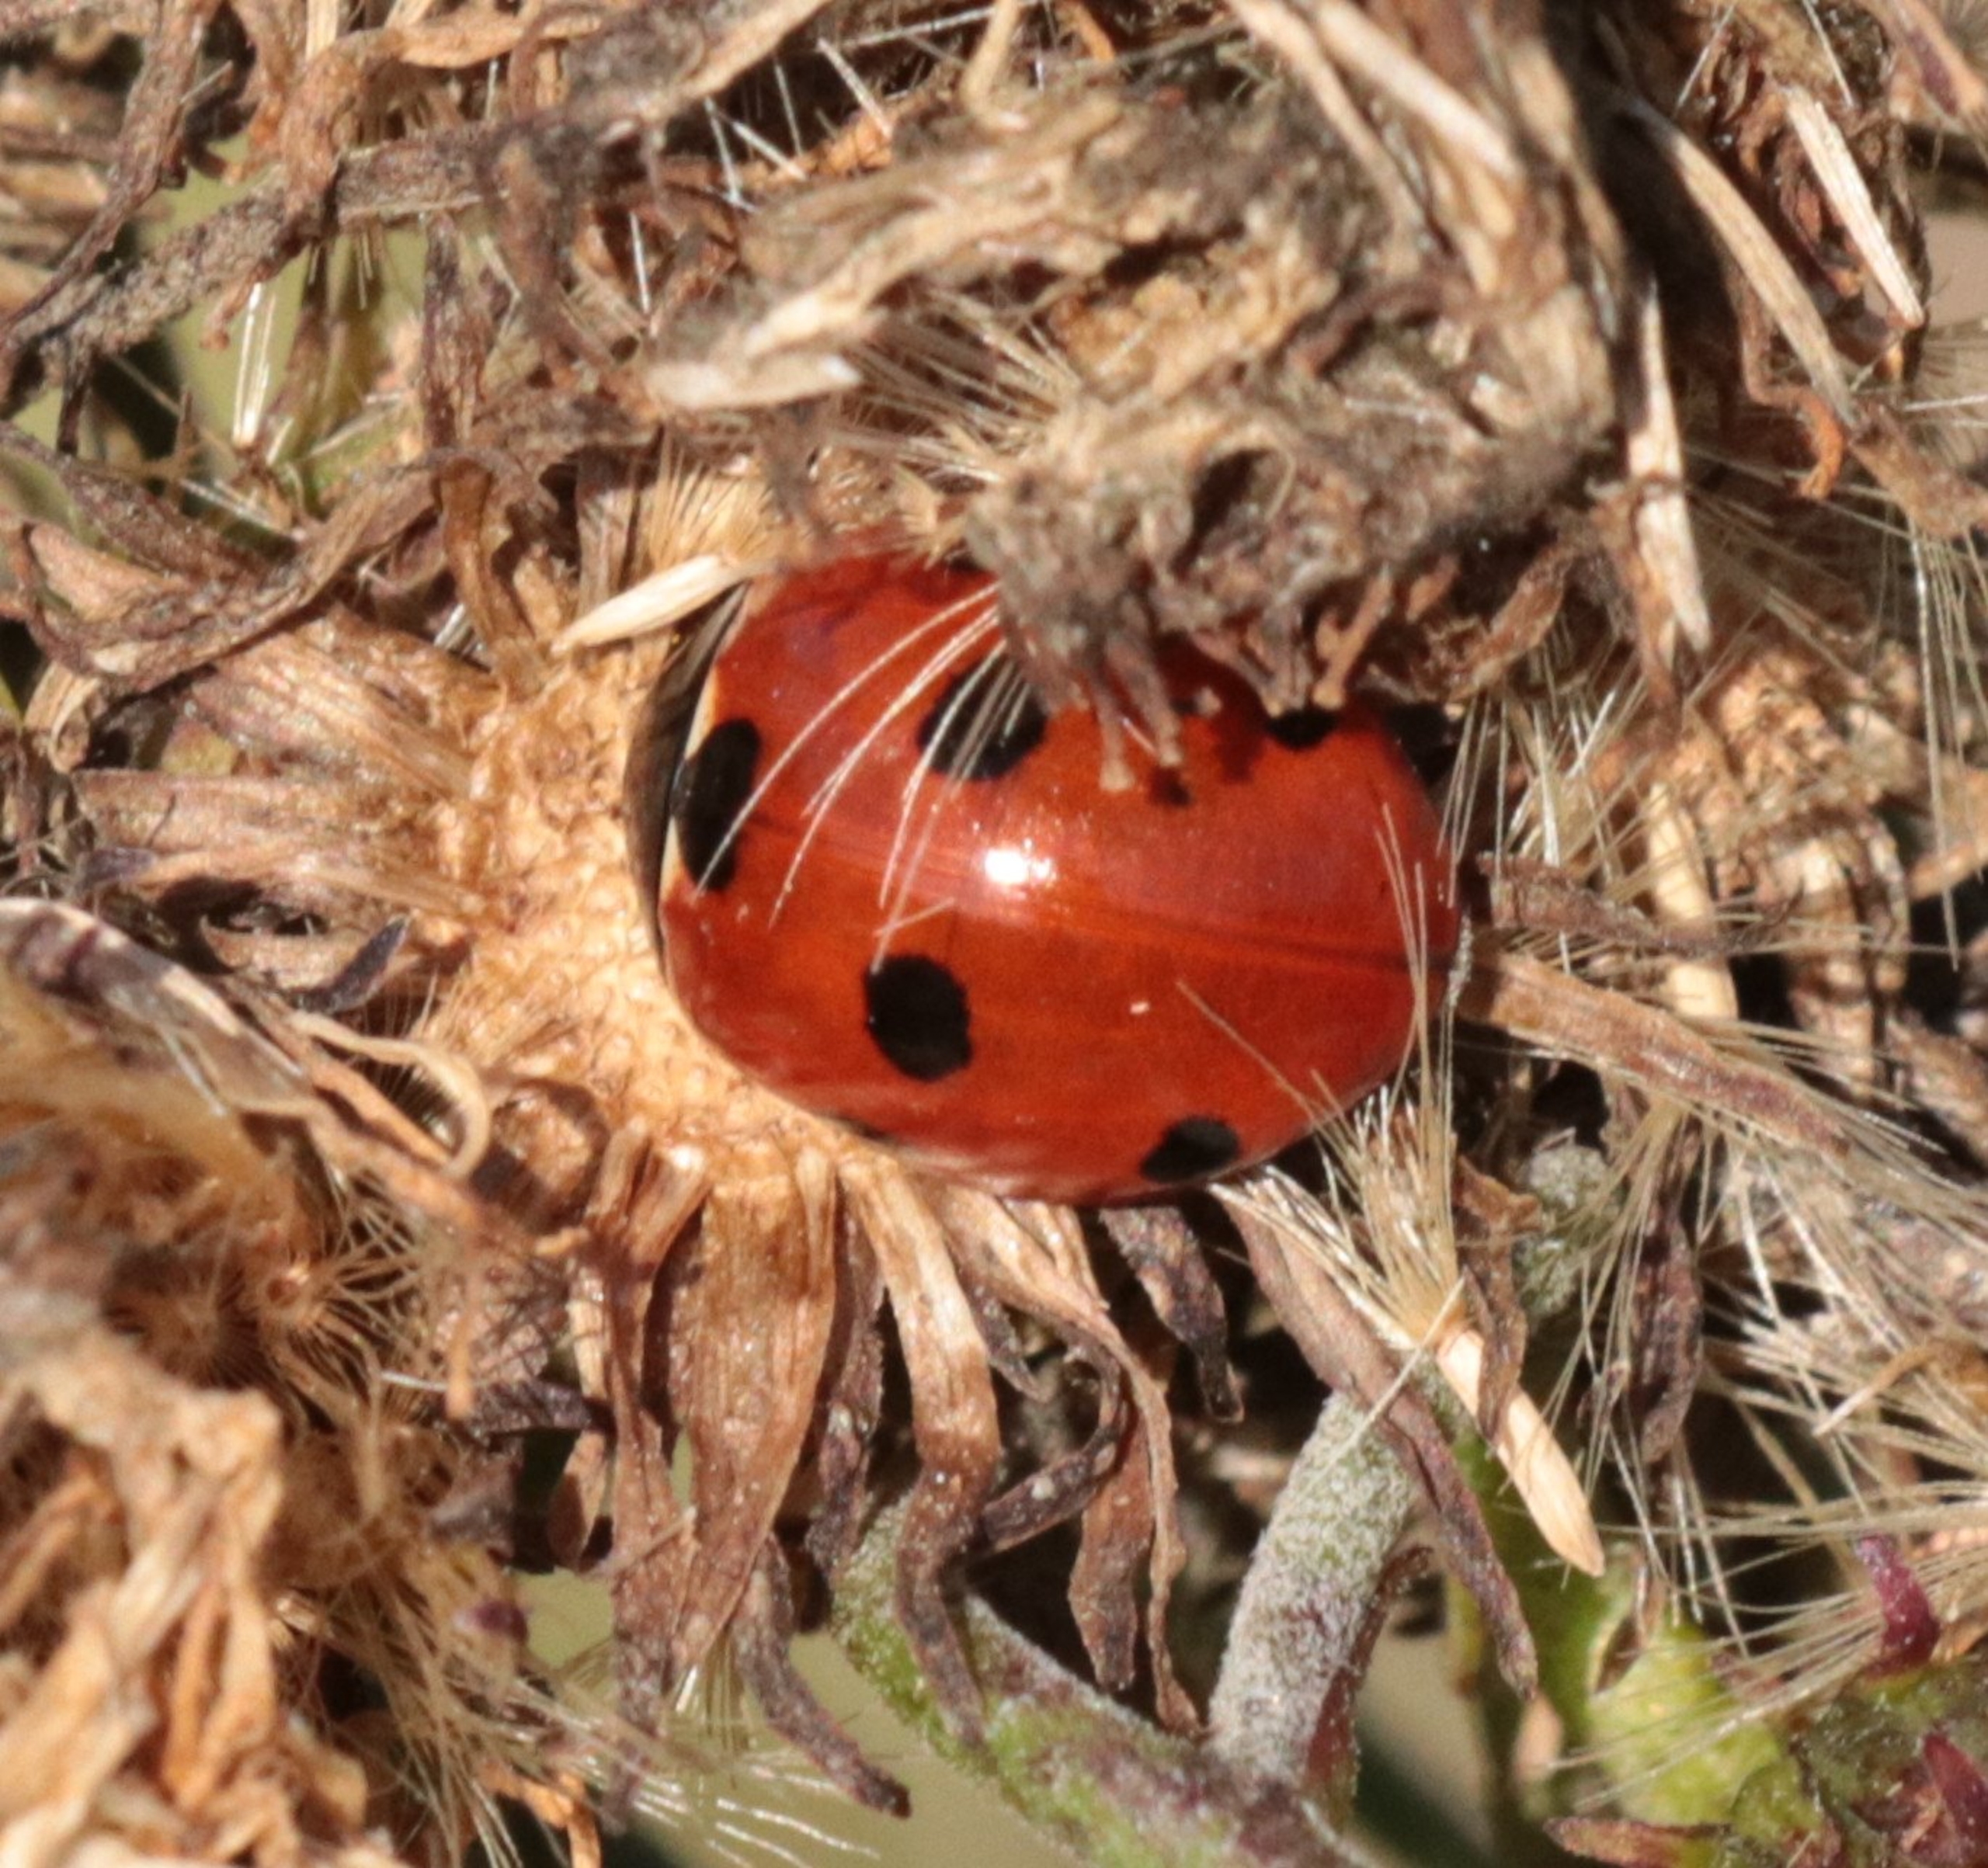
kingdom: Animalia
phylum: Arthropoda
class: Insecta
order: Coleoptera
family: Coccinellidae
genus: Coccinella
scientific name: Coccinella septempunctata
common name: Syvplettet mariehøne
